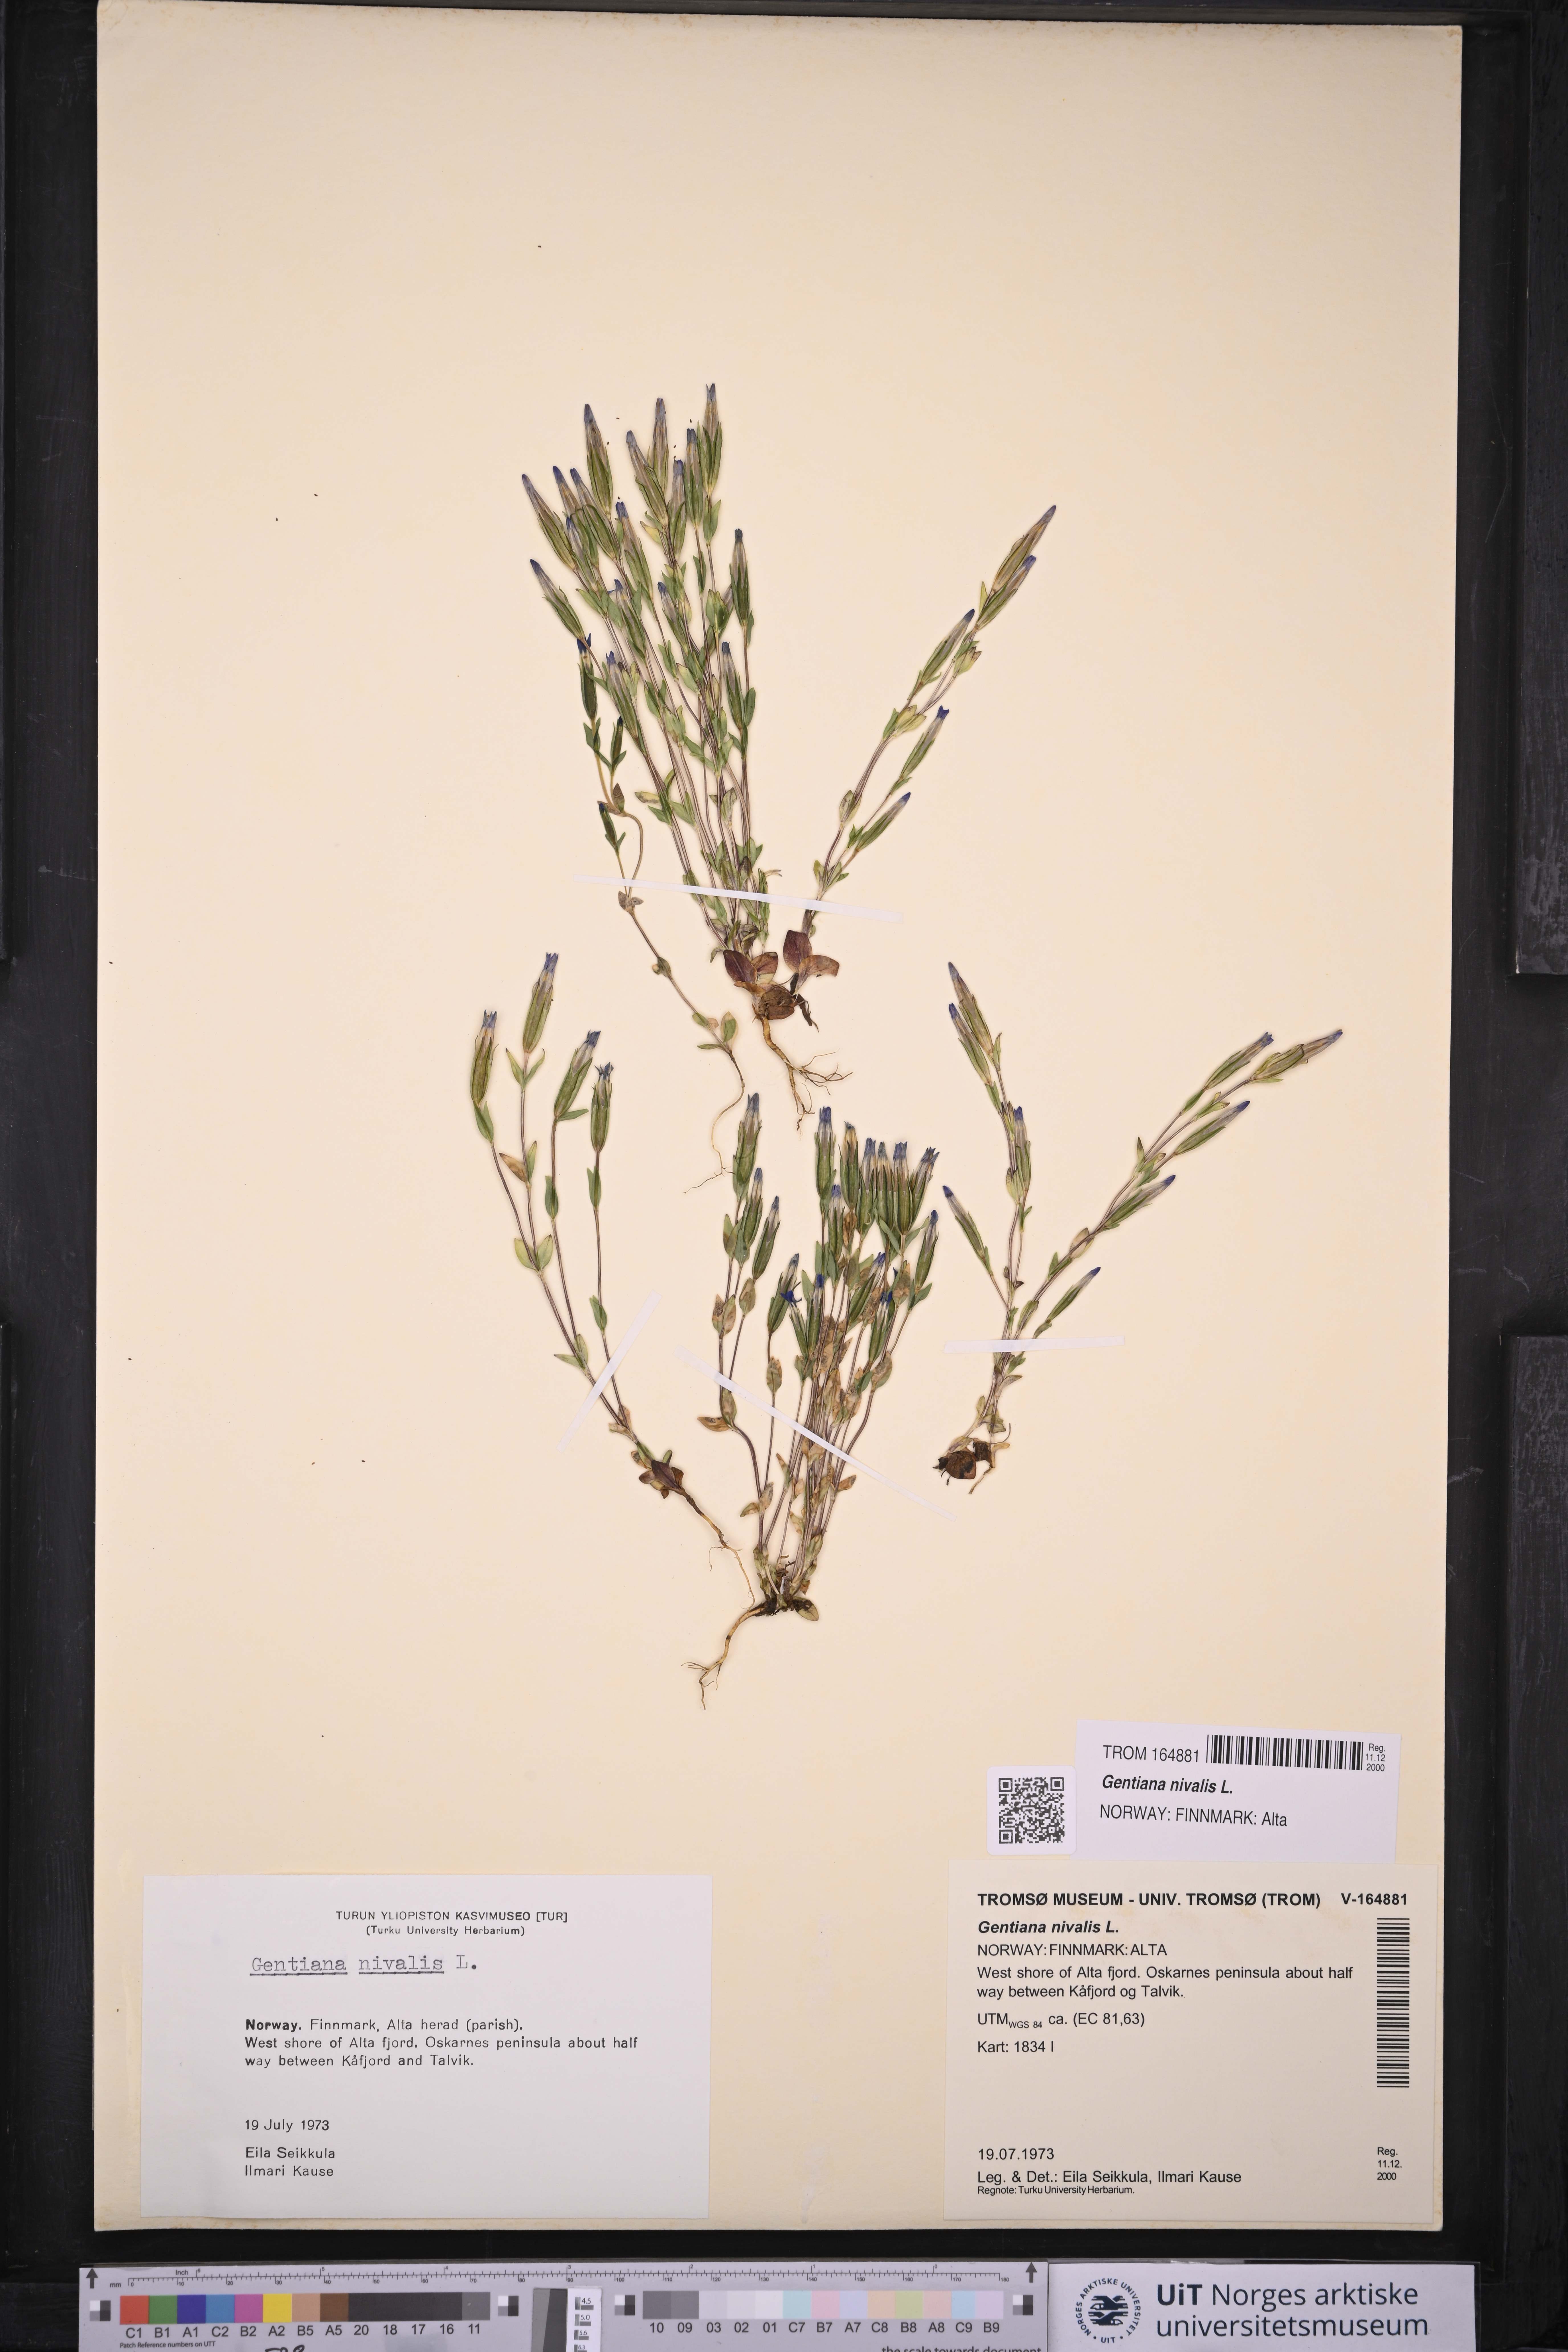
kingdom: Plantae
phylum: Tracheophyta
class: Magnoliopsida
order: Gentianales
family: Gentianaceae
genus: Gentiana
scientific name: Gentiana nivalis
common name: Alpine gentian
